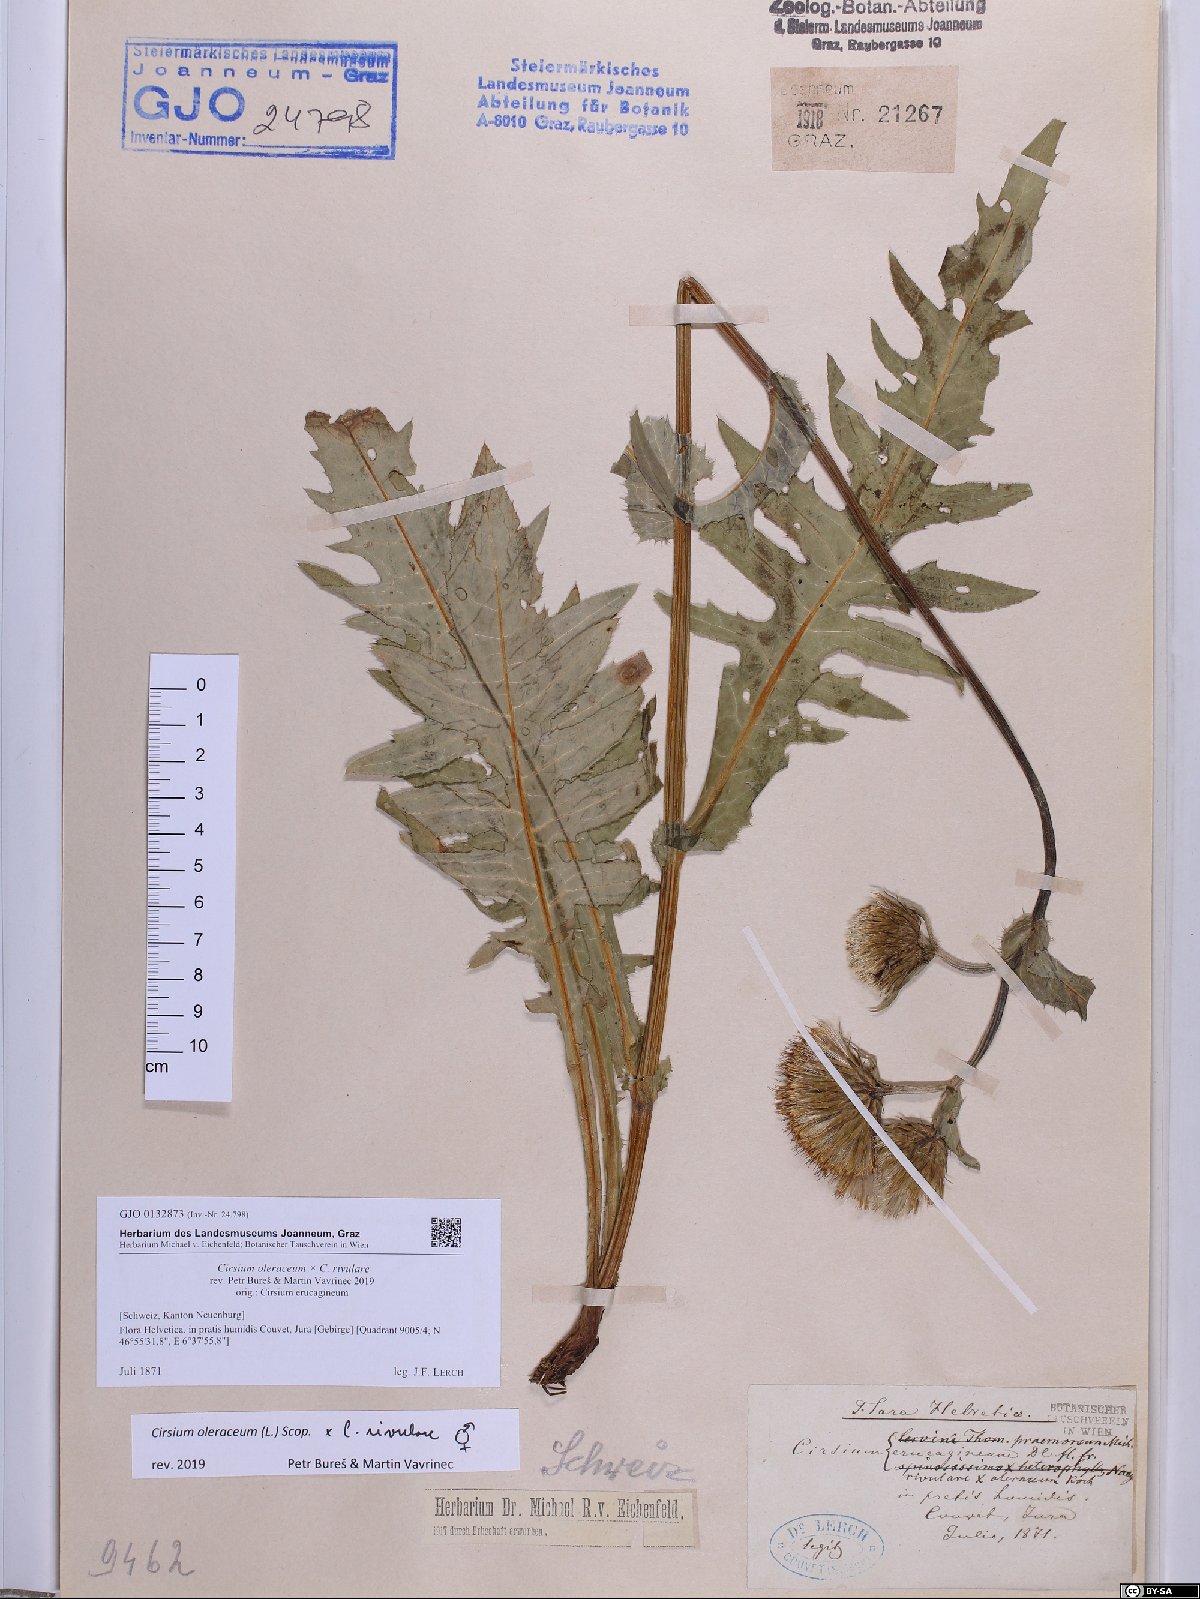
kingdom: Plantae
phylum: Tracheophyta
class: Magnoliopsida
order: Asterales
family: Asteraceae
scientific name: Asteraceae
